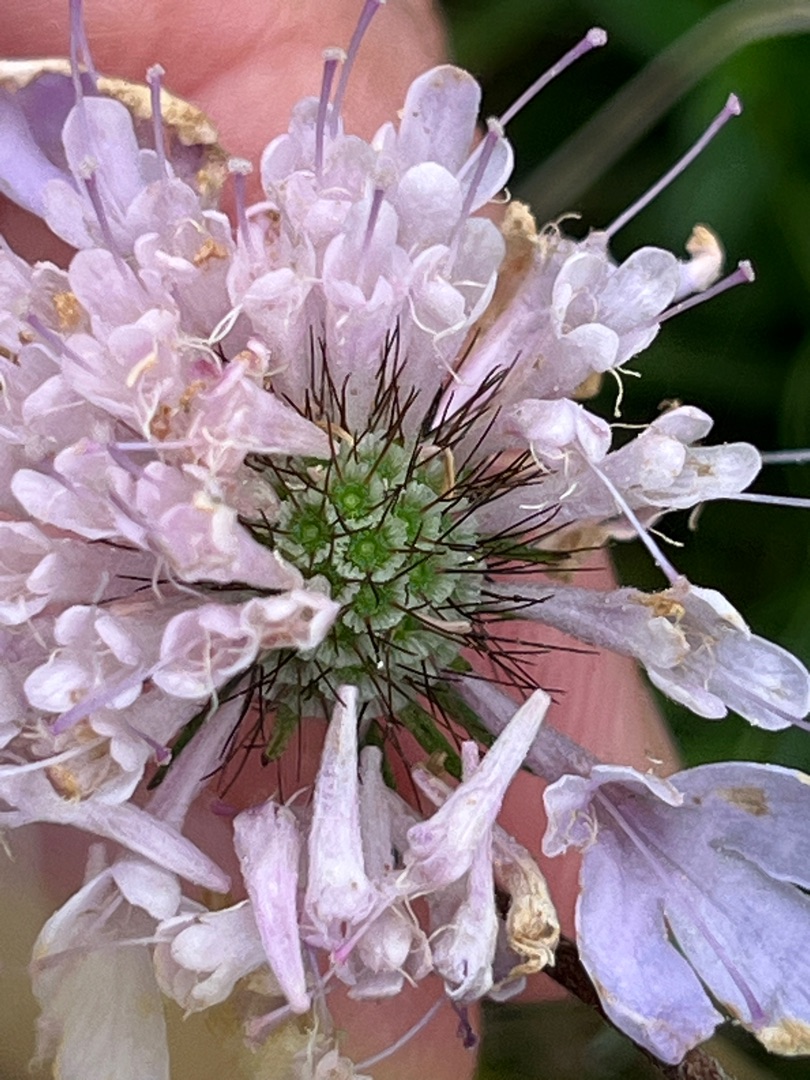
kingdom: Plantae
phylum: Tracheophyta
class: Magnoliopsida
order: Dipsacales
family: Caprifoliaceae
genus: Scabiosa
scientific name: Scabiosa columbaria
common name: Due-skabiose
